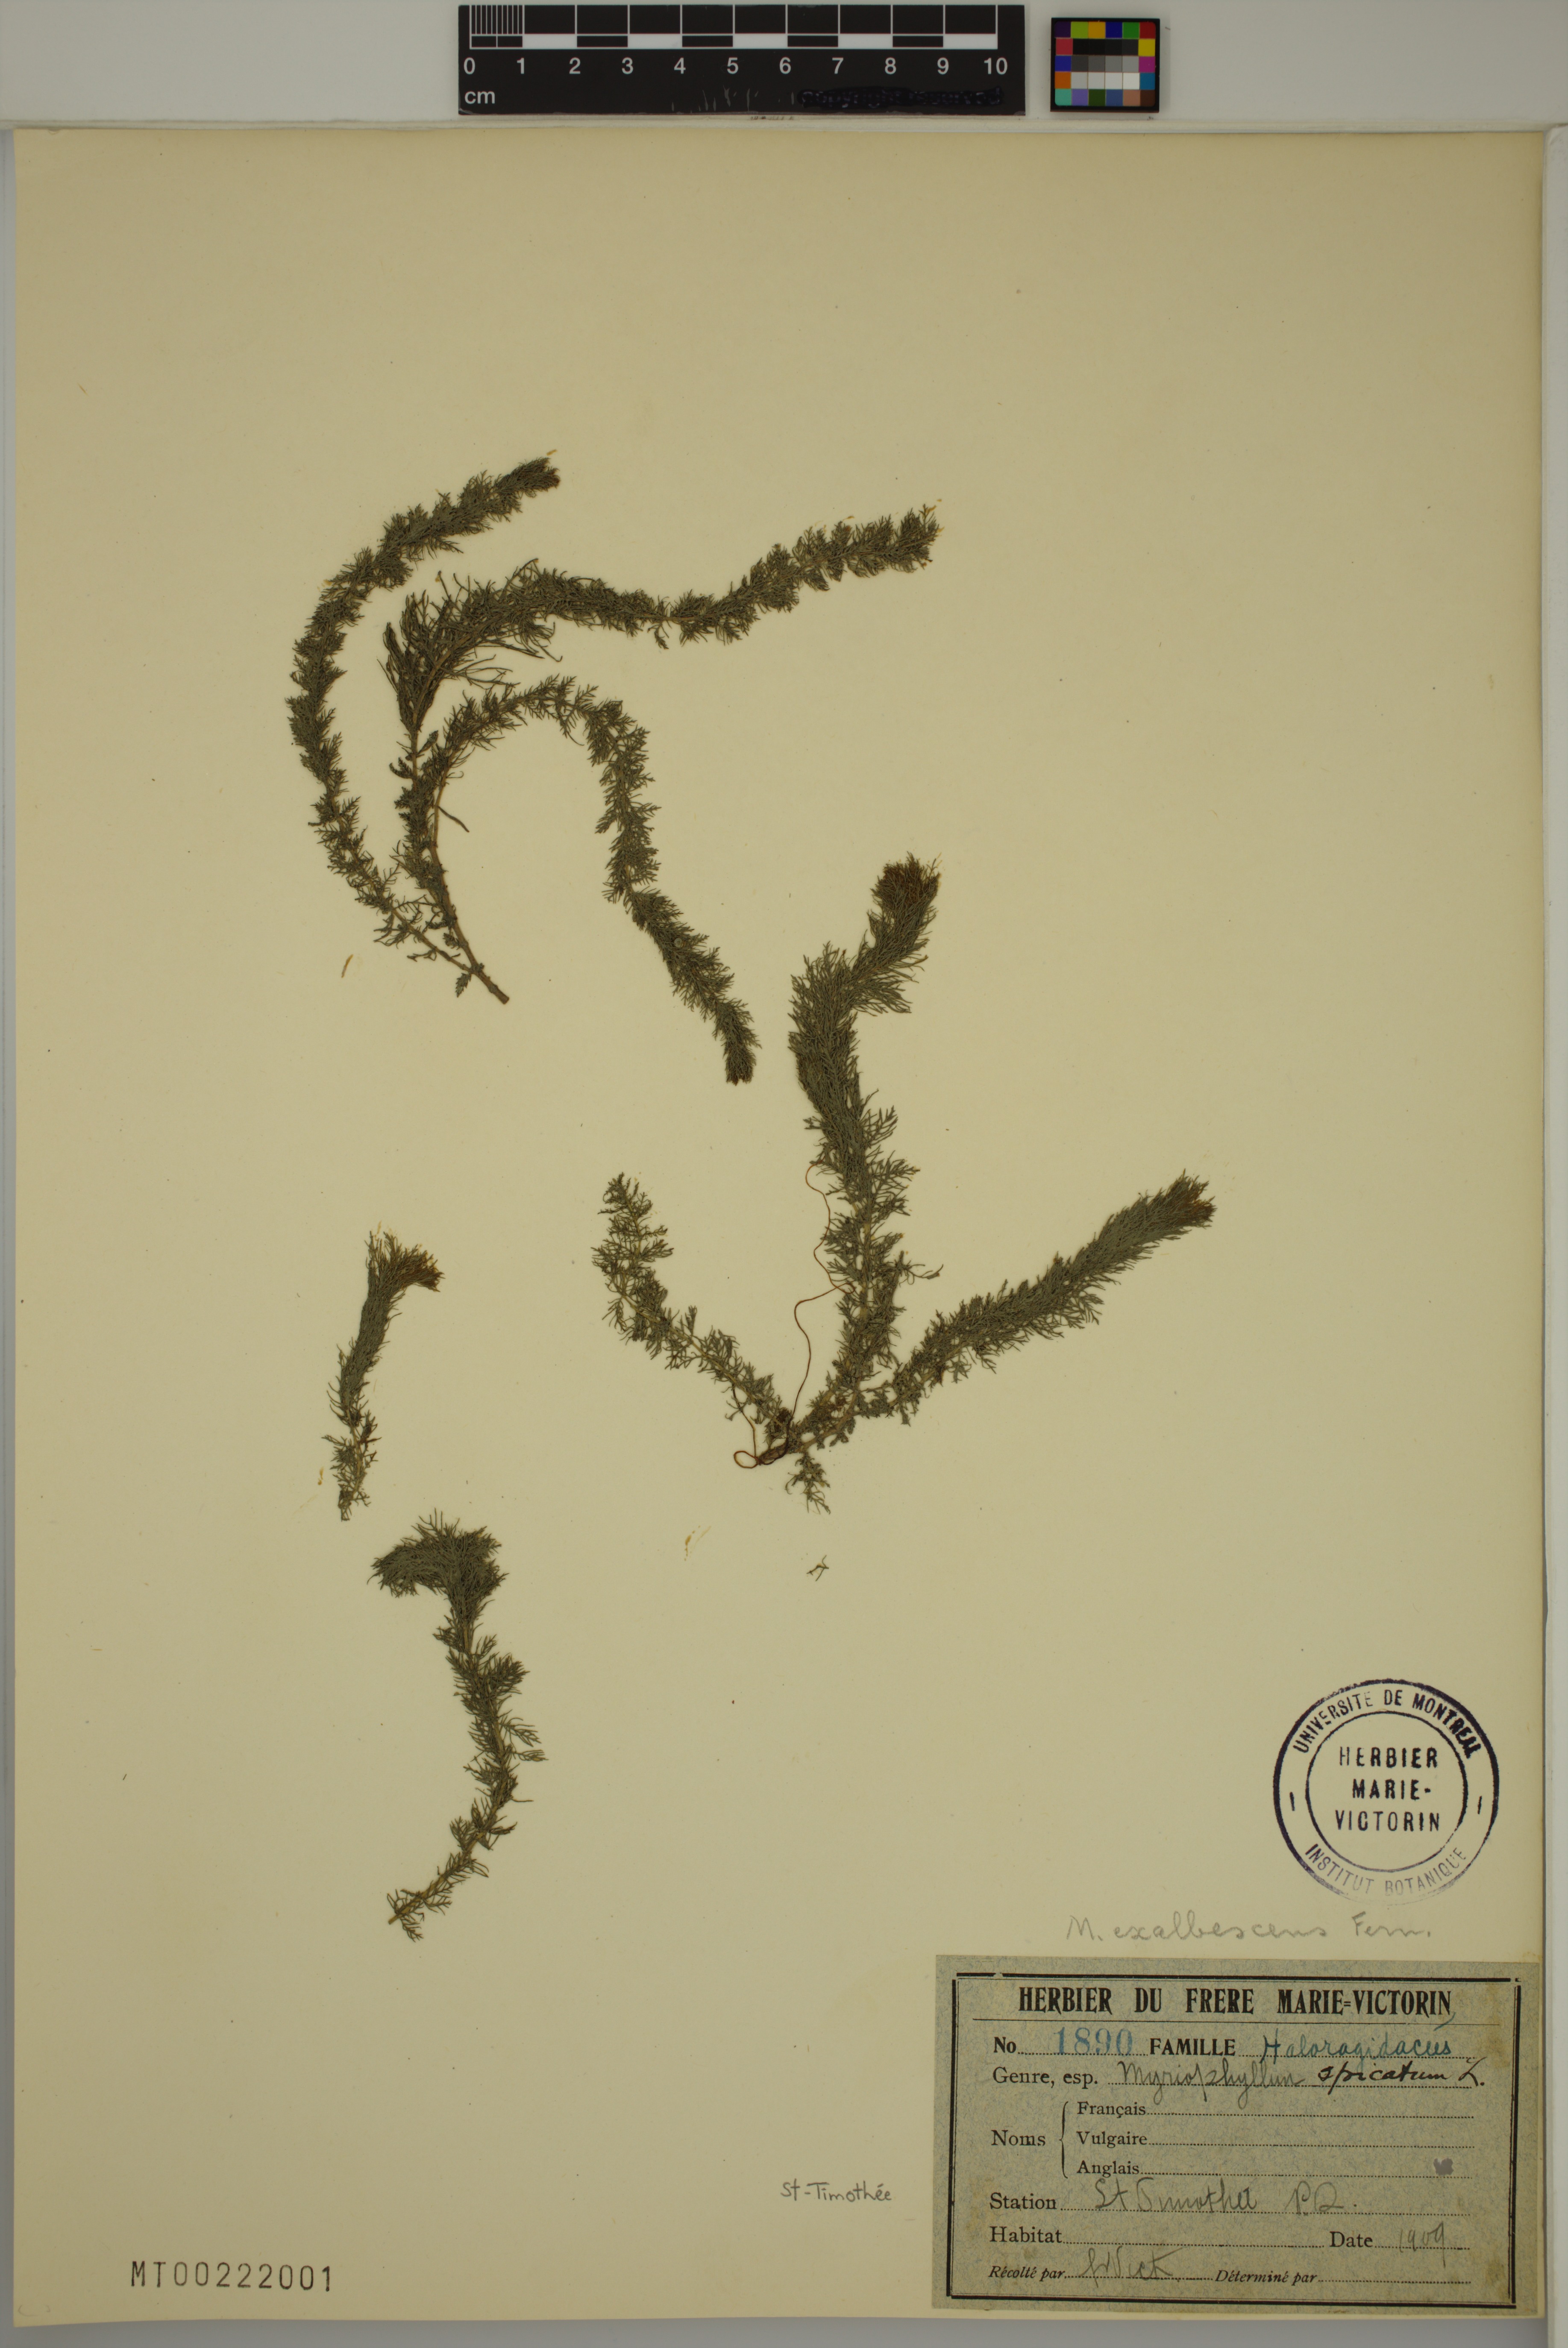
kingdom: Plantae
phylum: Tracheophyta
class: Magnoliopsida
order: Saxifragales
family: Haloragaceae
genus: Myriophyllum
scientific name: Myriophyllum sibiricum
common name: Siberian water-milfoil
